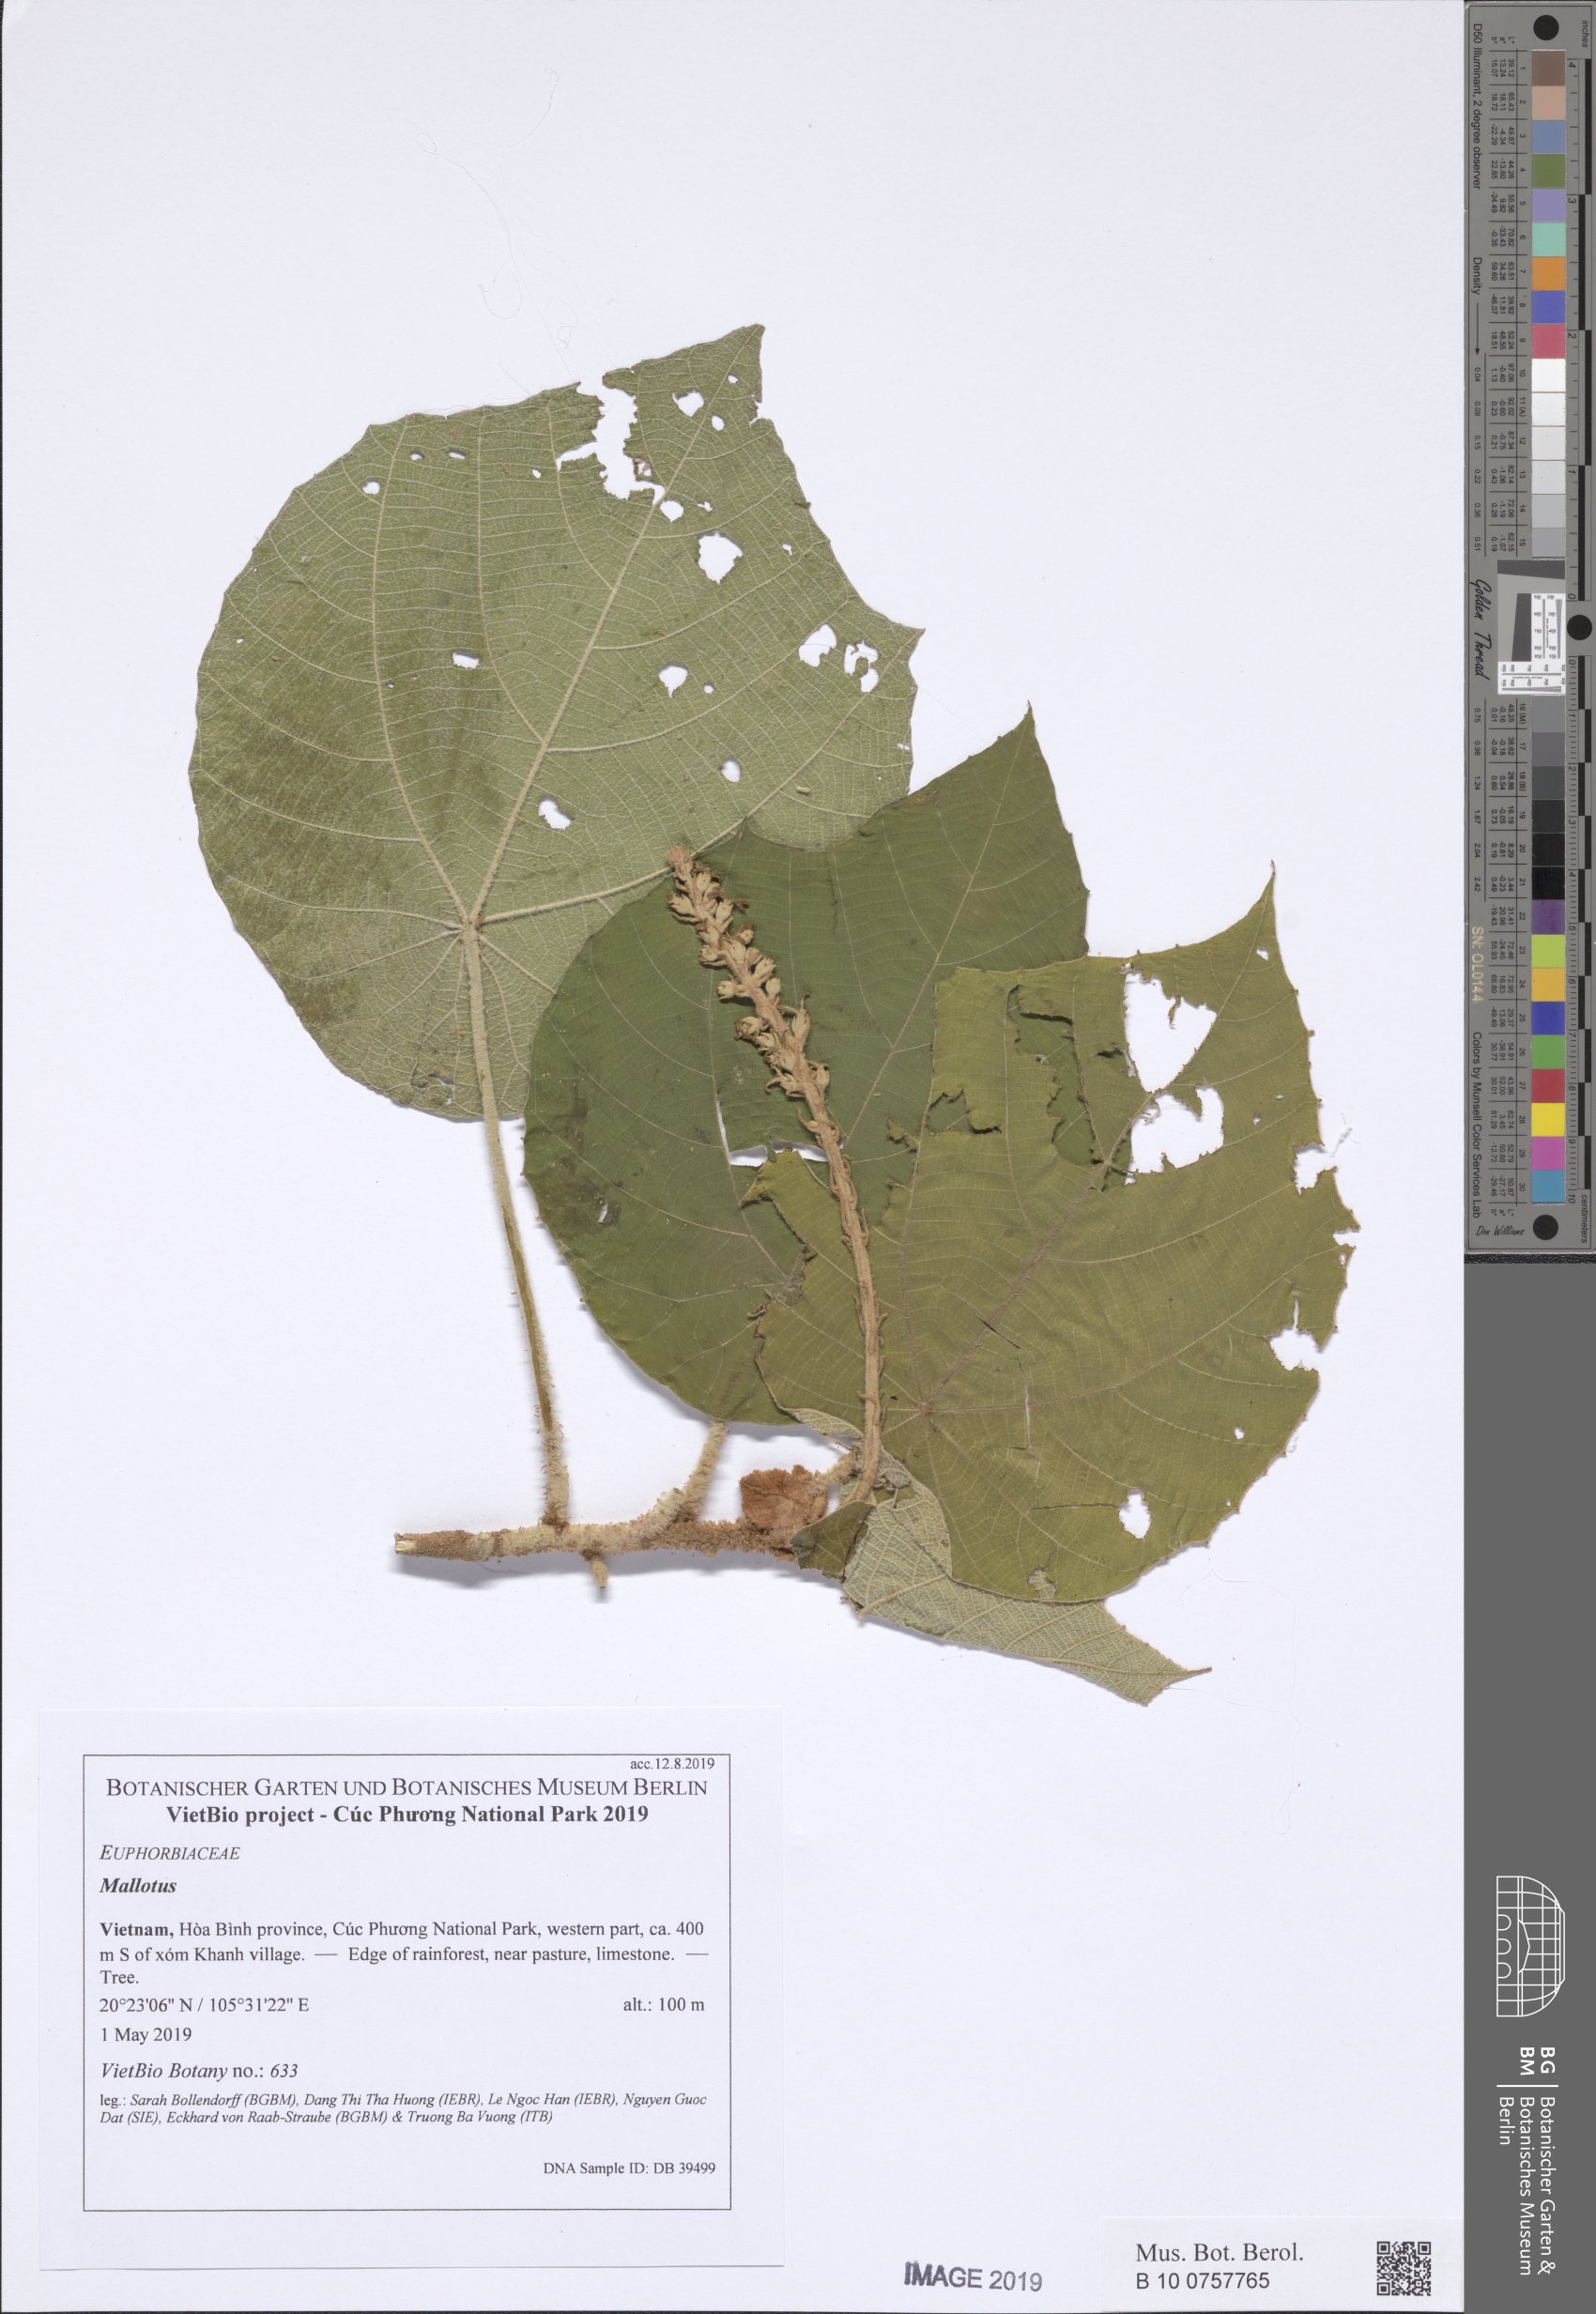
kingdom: Plantae
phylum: Tracheophyta
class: Magnoliopsida
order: Malpighiales
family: Euphorbiaceae
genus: Mallotus
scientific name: Mallotus barbatus
